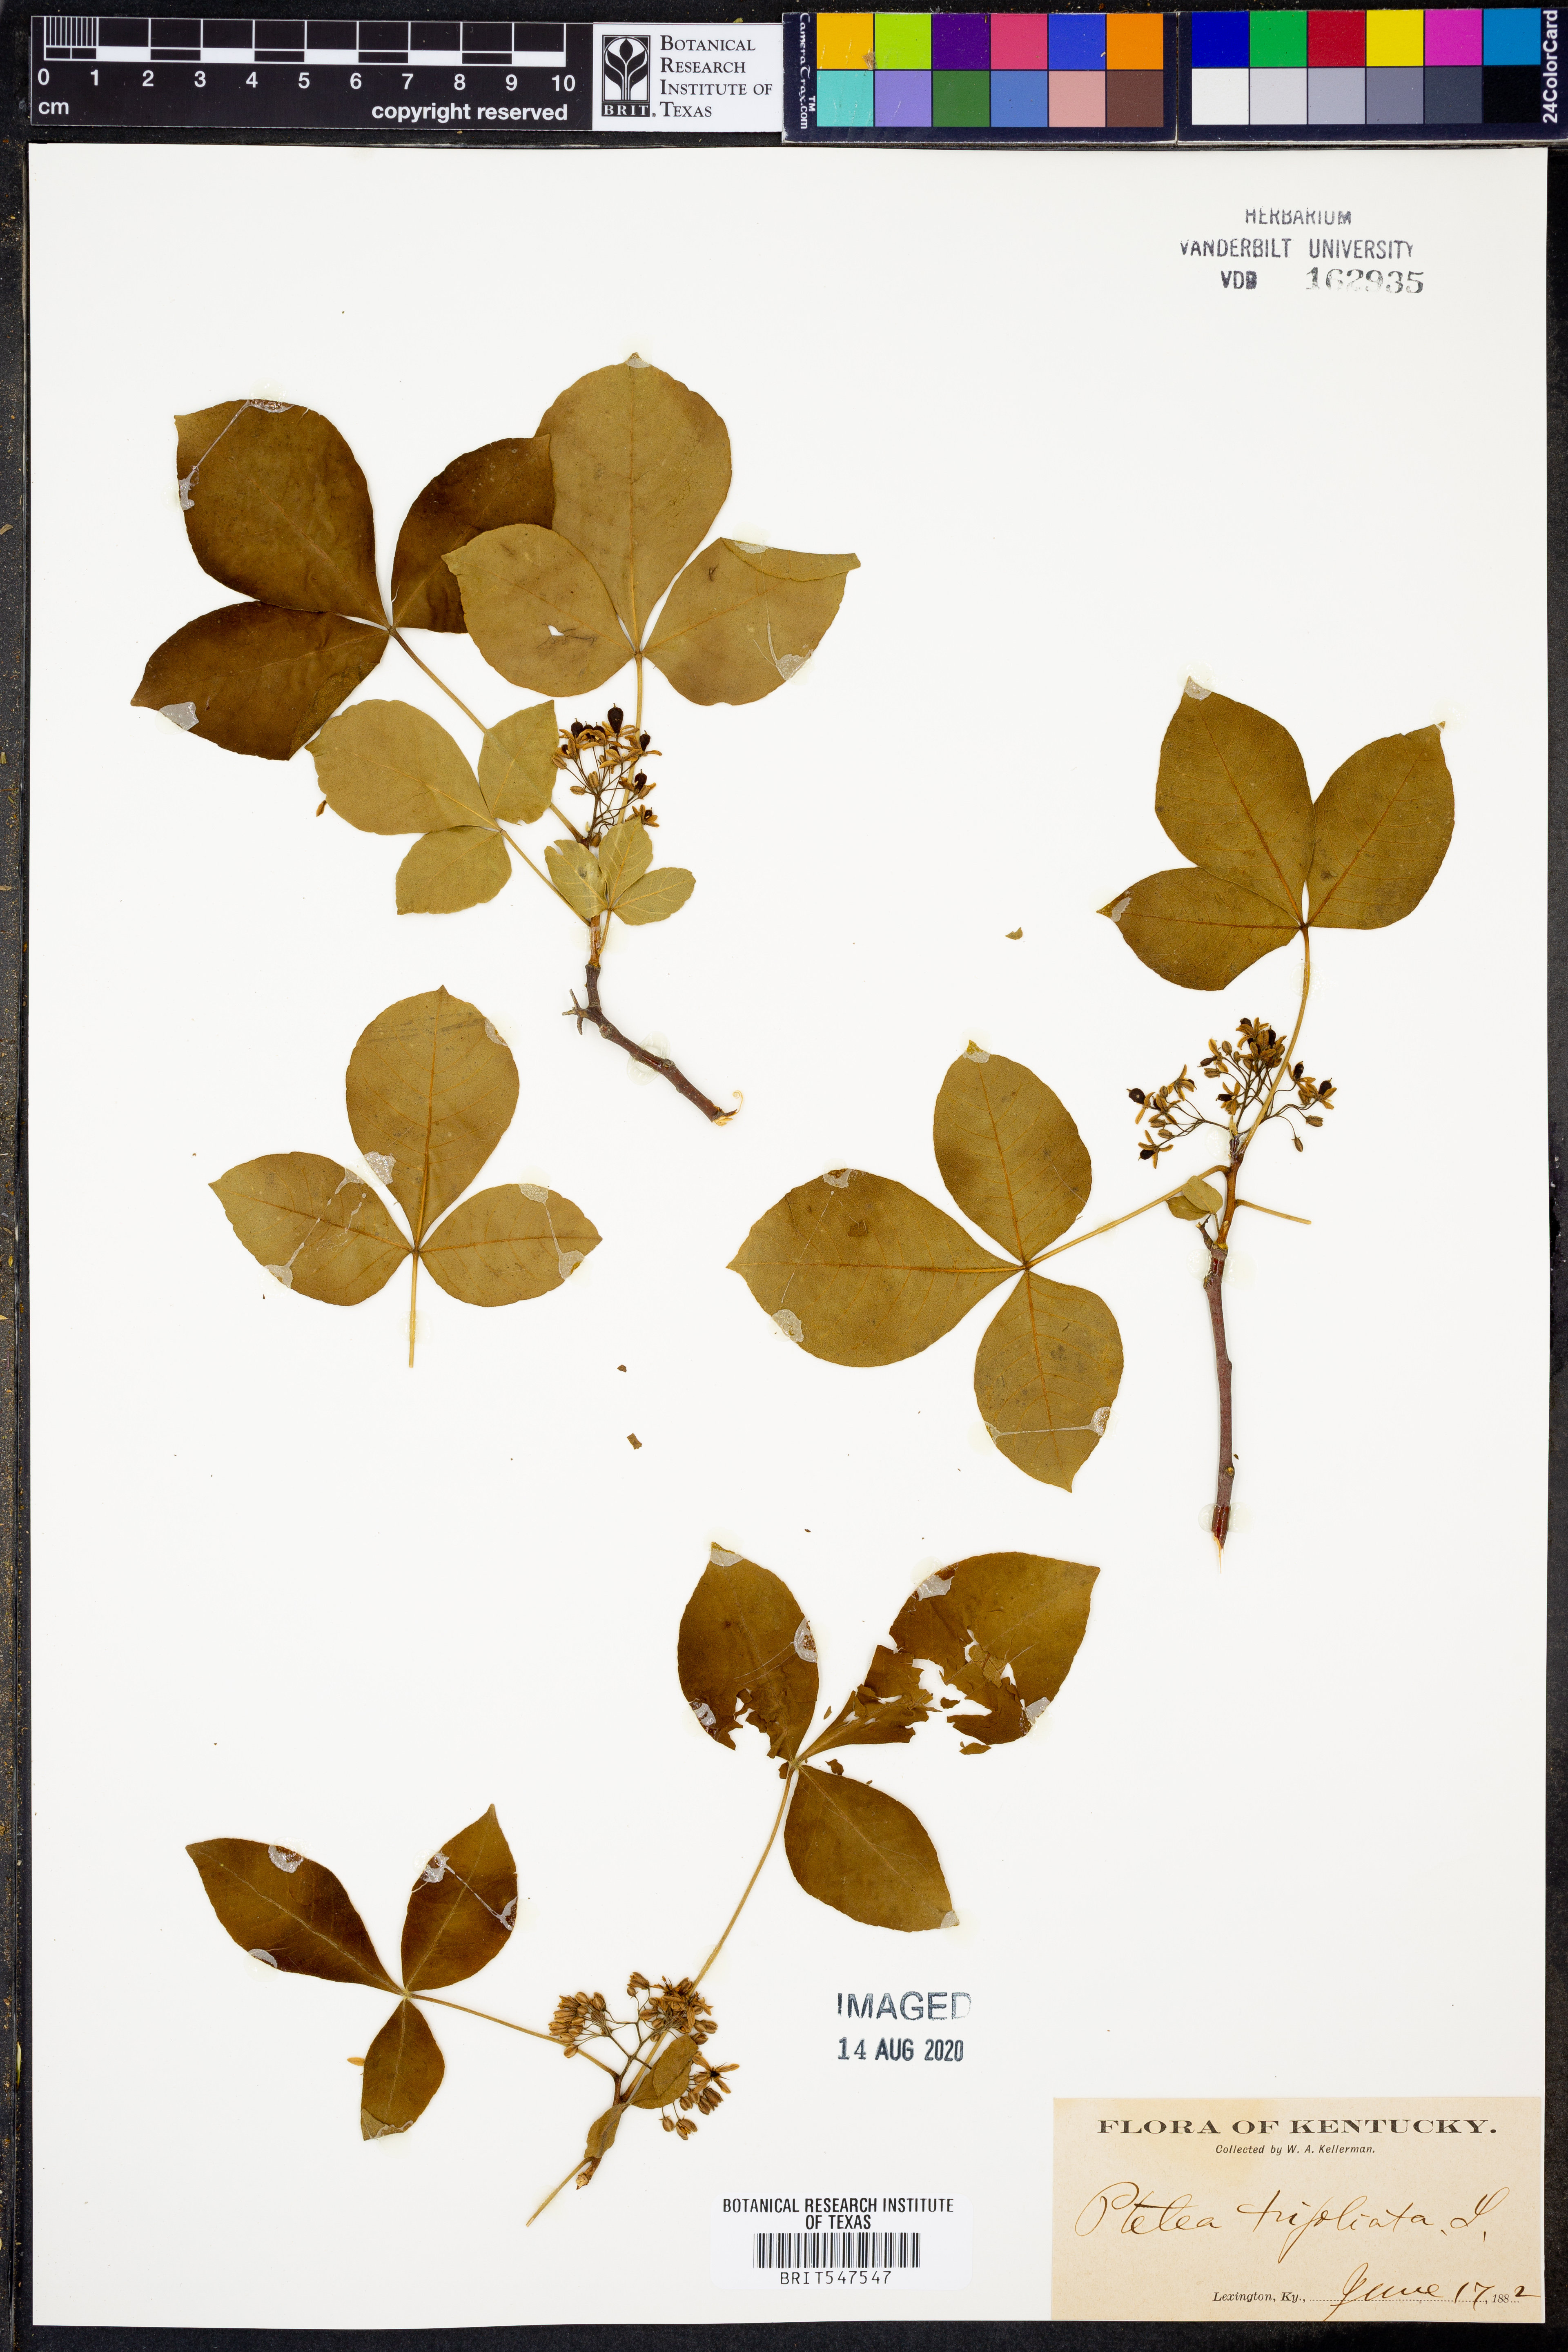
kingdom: Plantae
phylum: Tracheophyta
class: Magnoliopsida
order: Sapindales
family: Rutaceae
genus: Ptelea
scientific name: Ptelea trifoliata
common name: Common hop-tree
